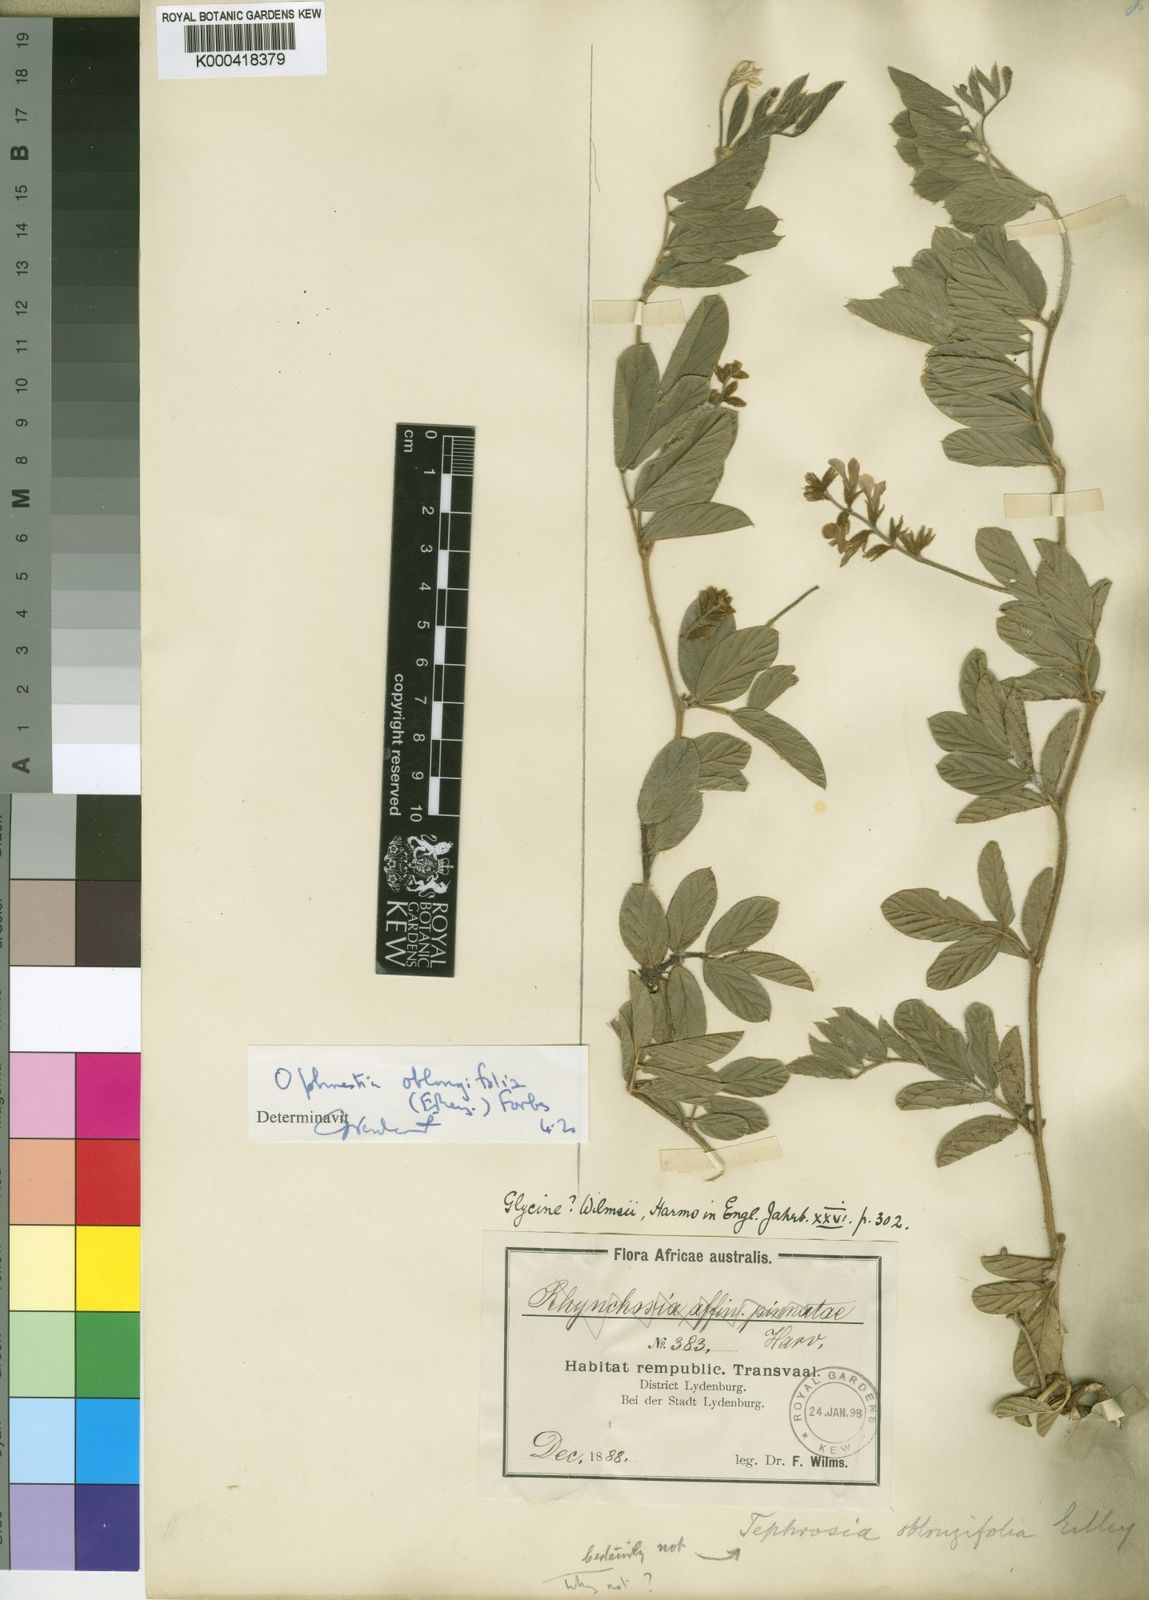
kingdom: Plantae
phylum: Tracheophyta
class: Magnoliopsida
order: Fabales
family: Fabaceae
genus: Ophrestia
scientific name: Ophrestia oblongifolia
